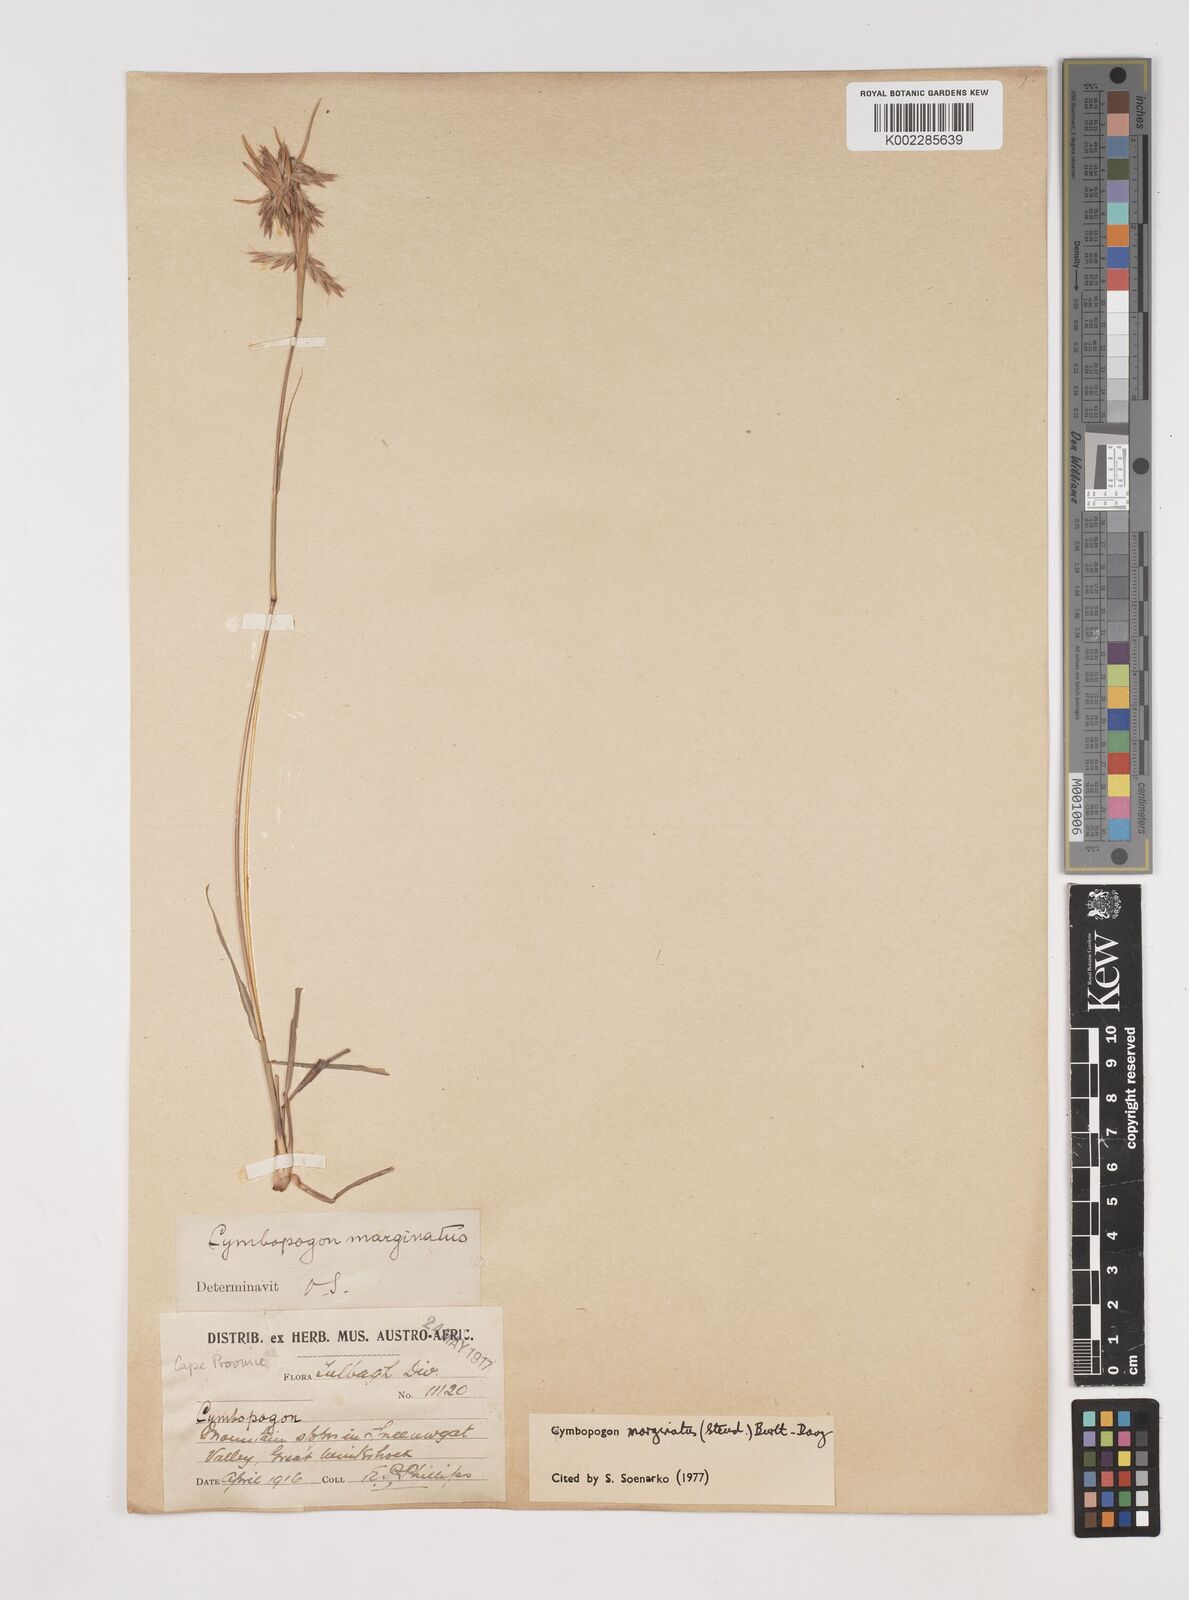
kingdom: Plantae
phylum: Tracheophyta
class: Liliopsida
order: Poales
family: Poaceae
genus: Cymbopogon
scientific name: Cymbopogon marginatus
